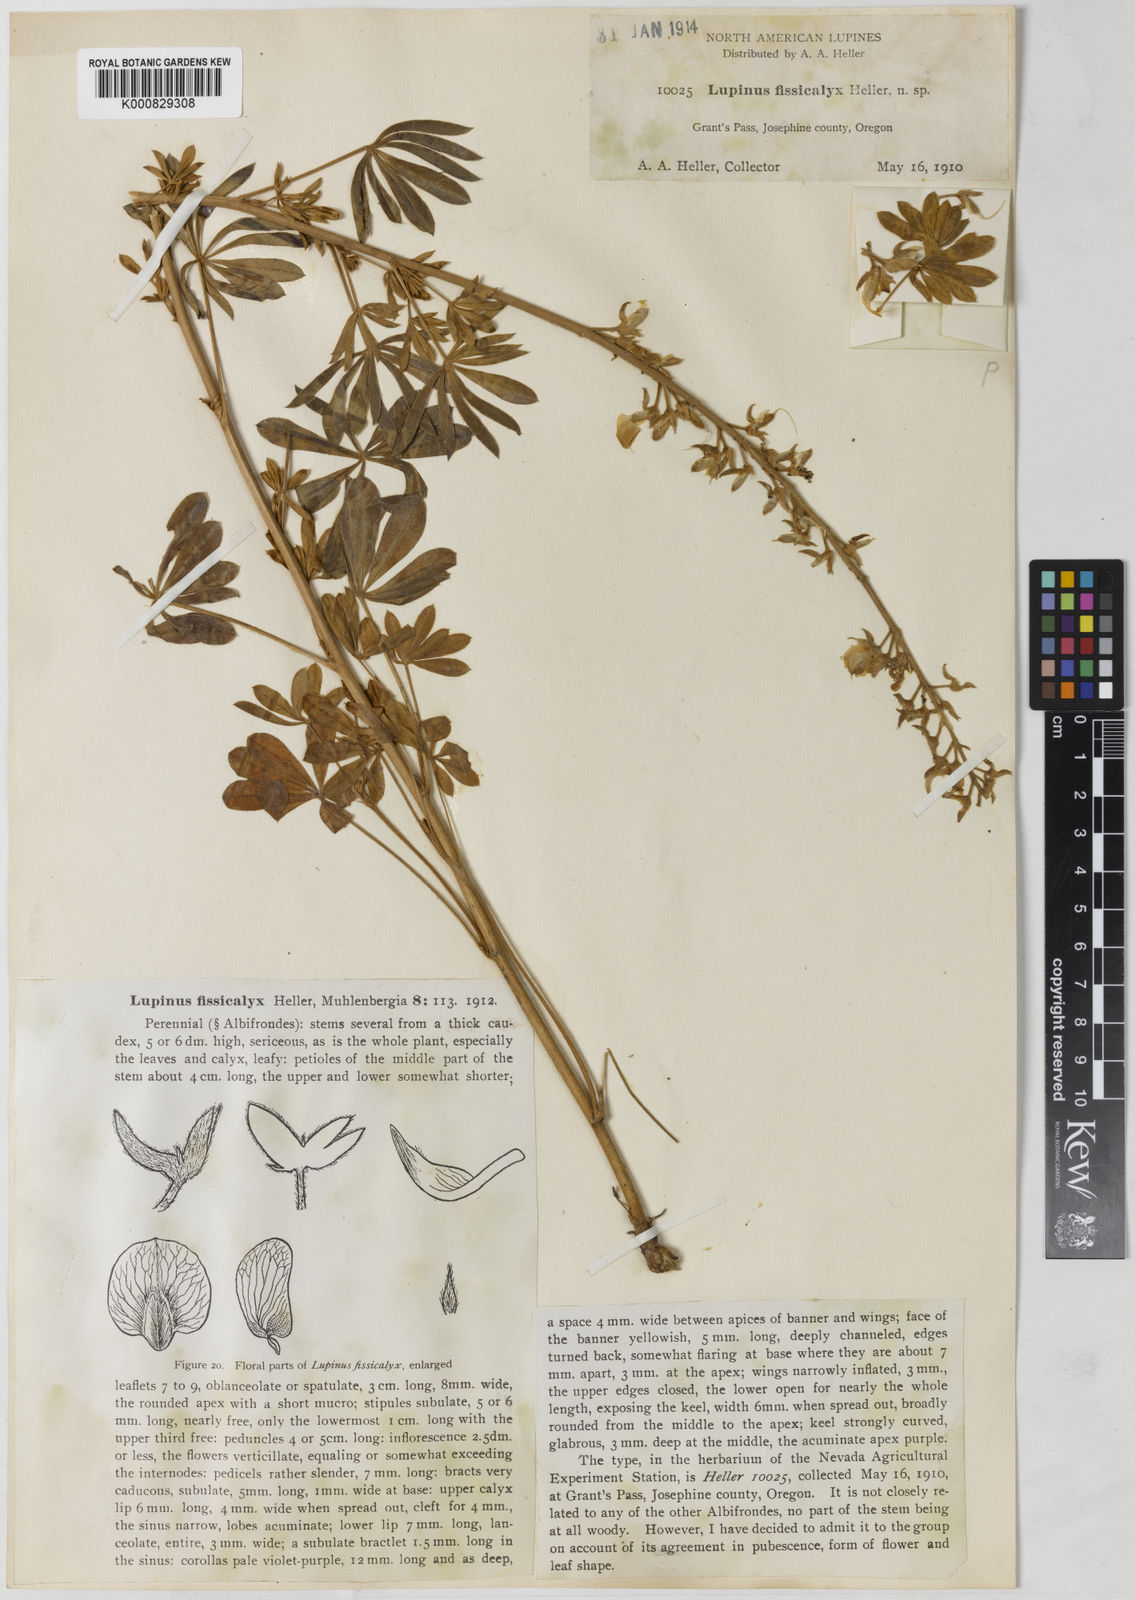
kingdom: Plantae
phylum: Tracheophyta
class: Magnoliopsida
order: Fabales
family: Fabaceae
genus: Lupinus
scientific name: Lupinus fissicalyx
